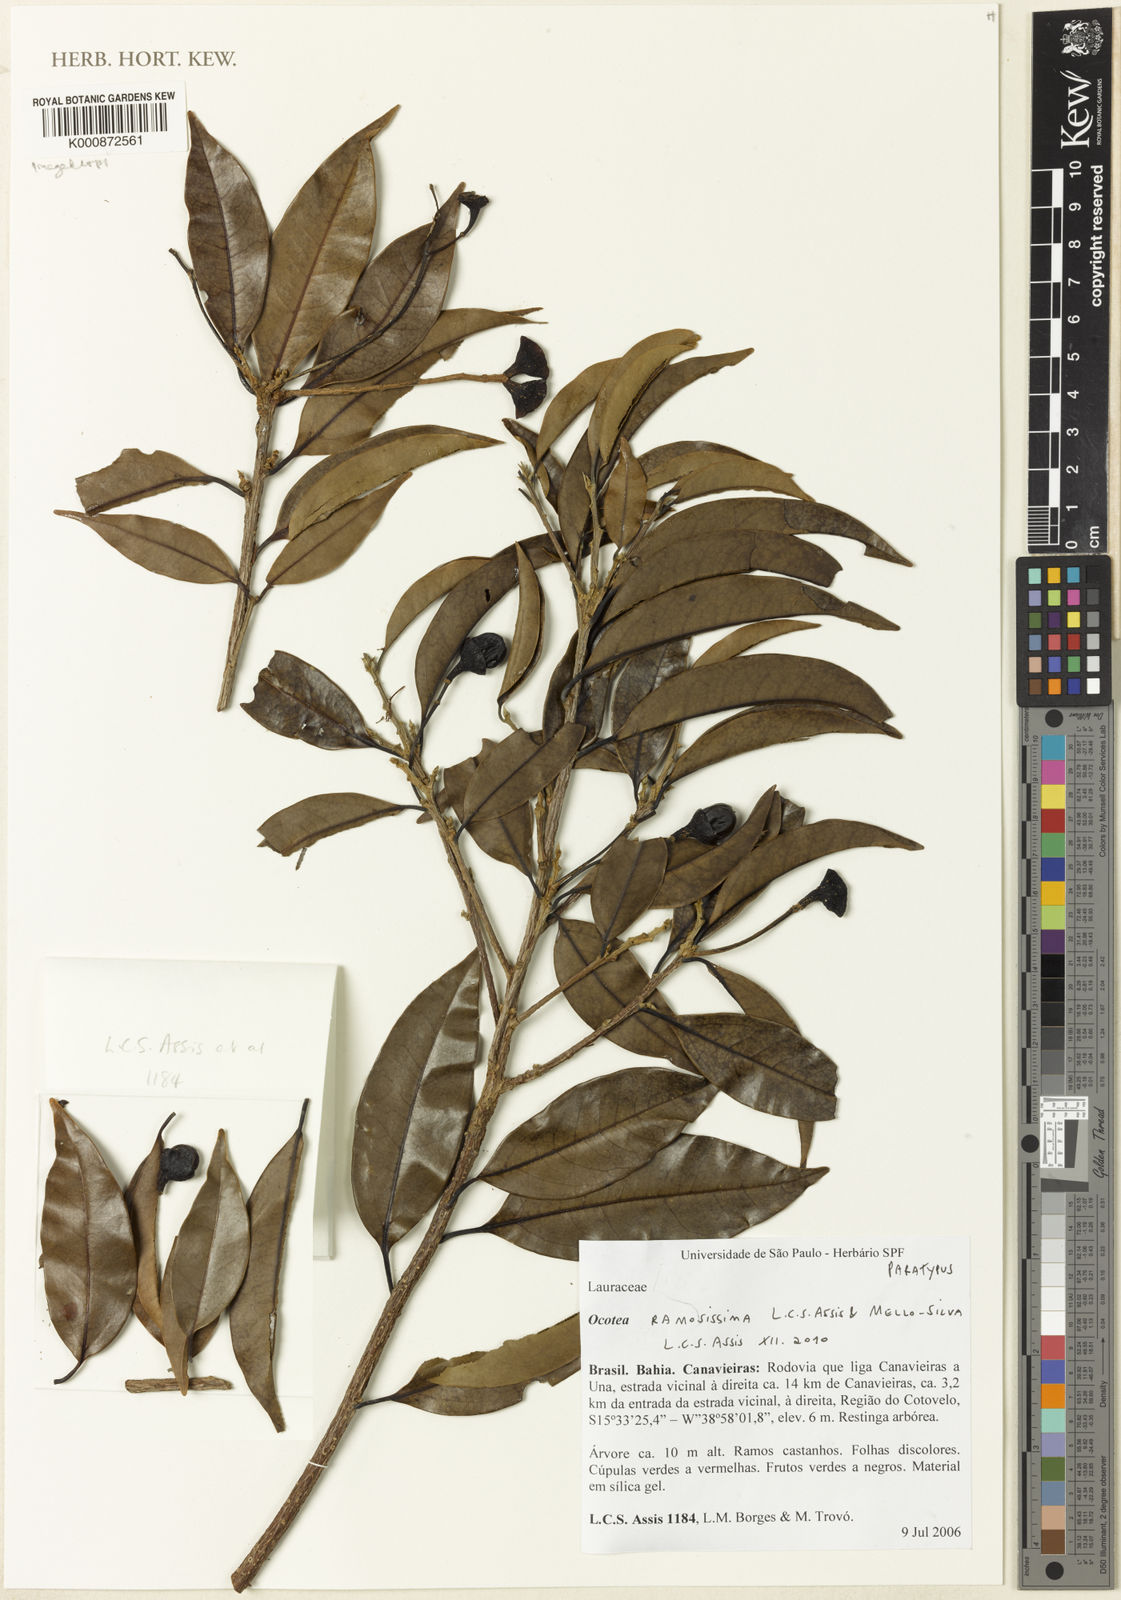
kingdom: Plantae
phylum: Tracheophyta
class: Magnoliopsida
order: Laurales
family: Lauraceae
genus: Ocotea
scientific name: Ocotea ramosissima
